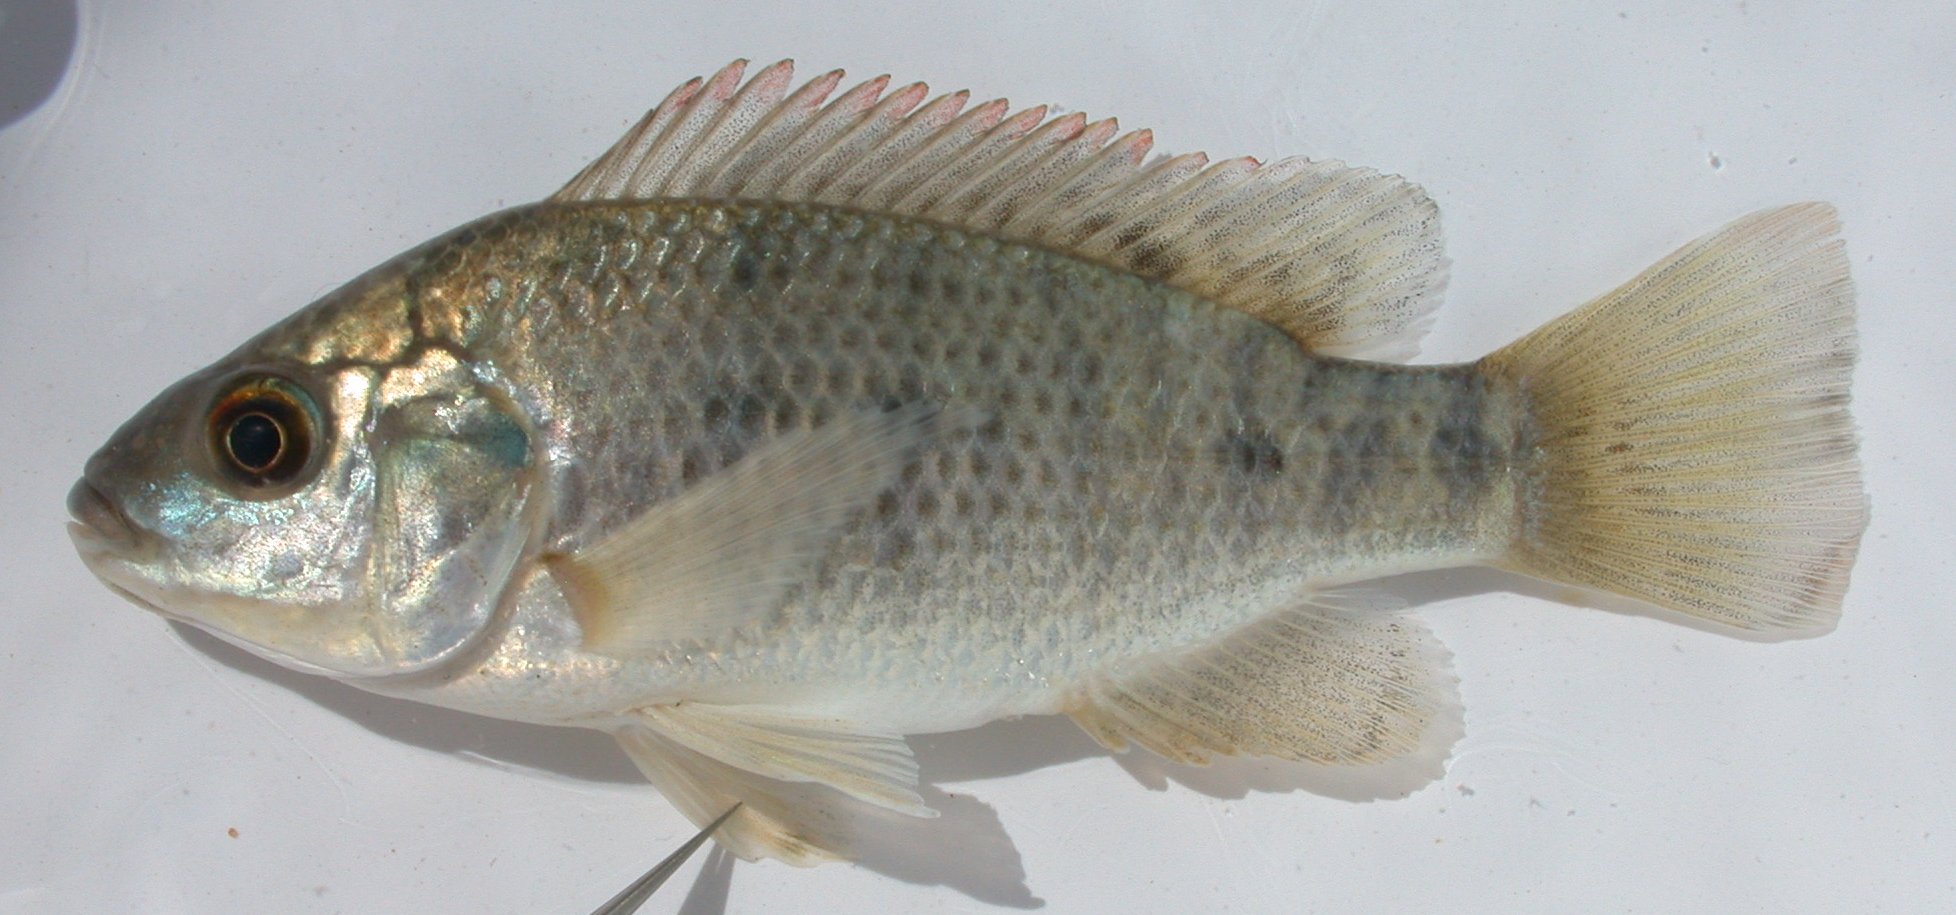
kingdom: Animalia
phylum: Chordata
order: Perciformes
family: Cichlidae
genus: Oreochromis
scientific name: Oreochromis mossambicus
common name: Mozambique tilapia
